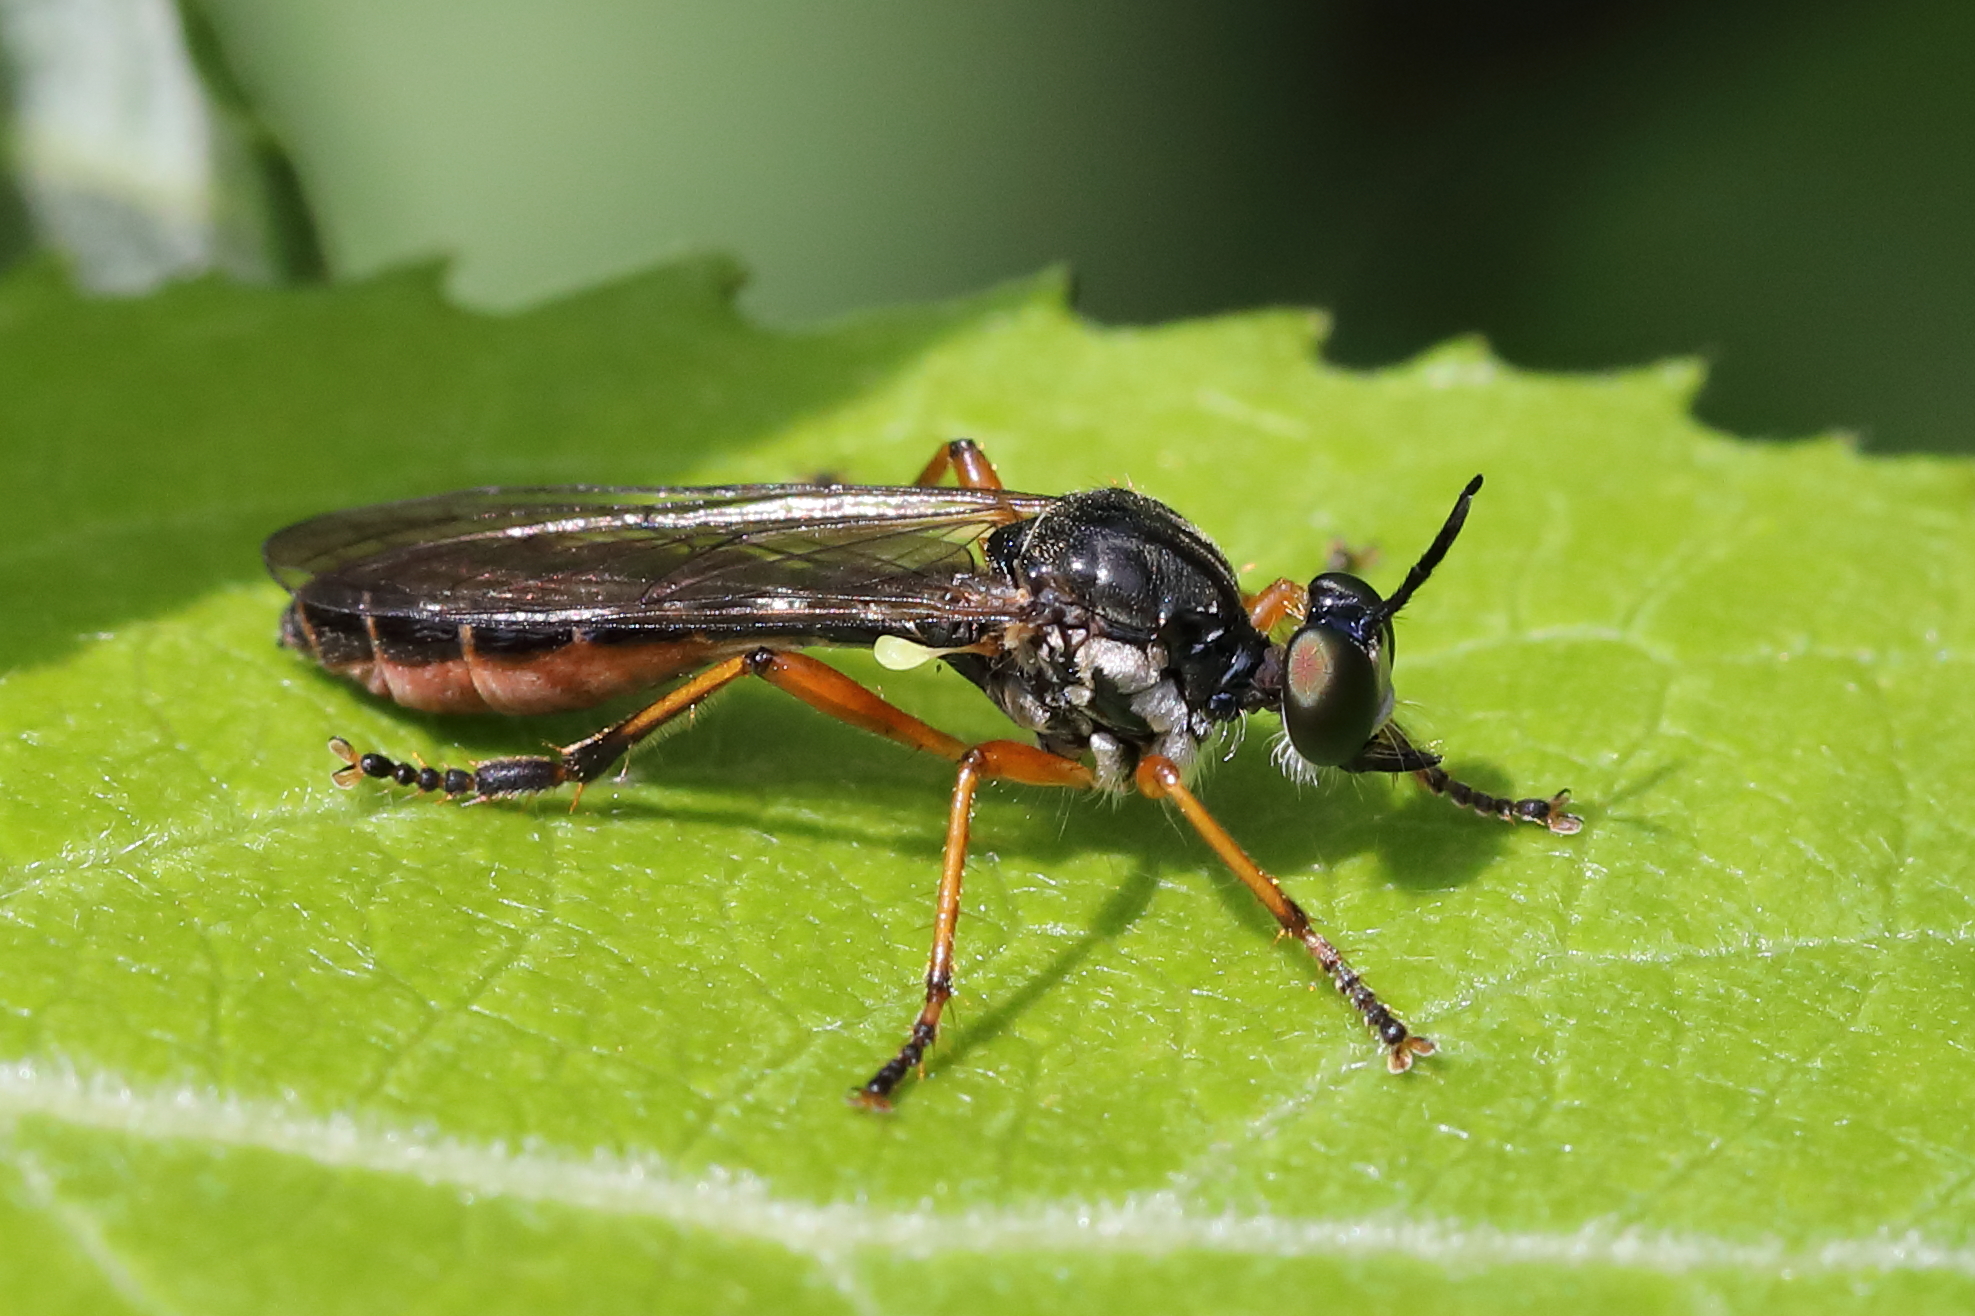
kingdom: Animalia
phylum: Arthropoda
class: Insecta
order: Diptera
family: Asilidae
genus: Dioctria
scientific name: Dioctria hyalipennis
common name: Stripe-legged robberfly
